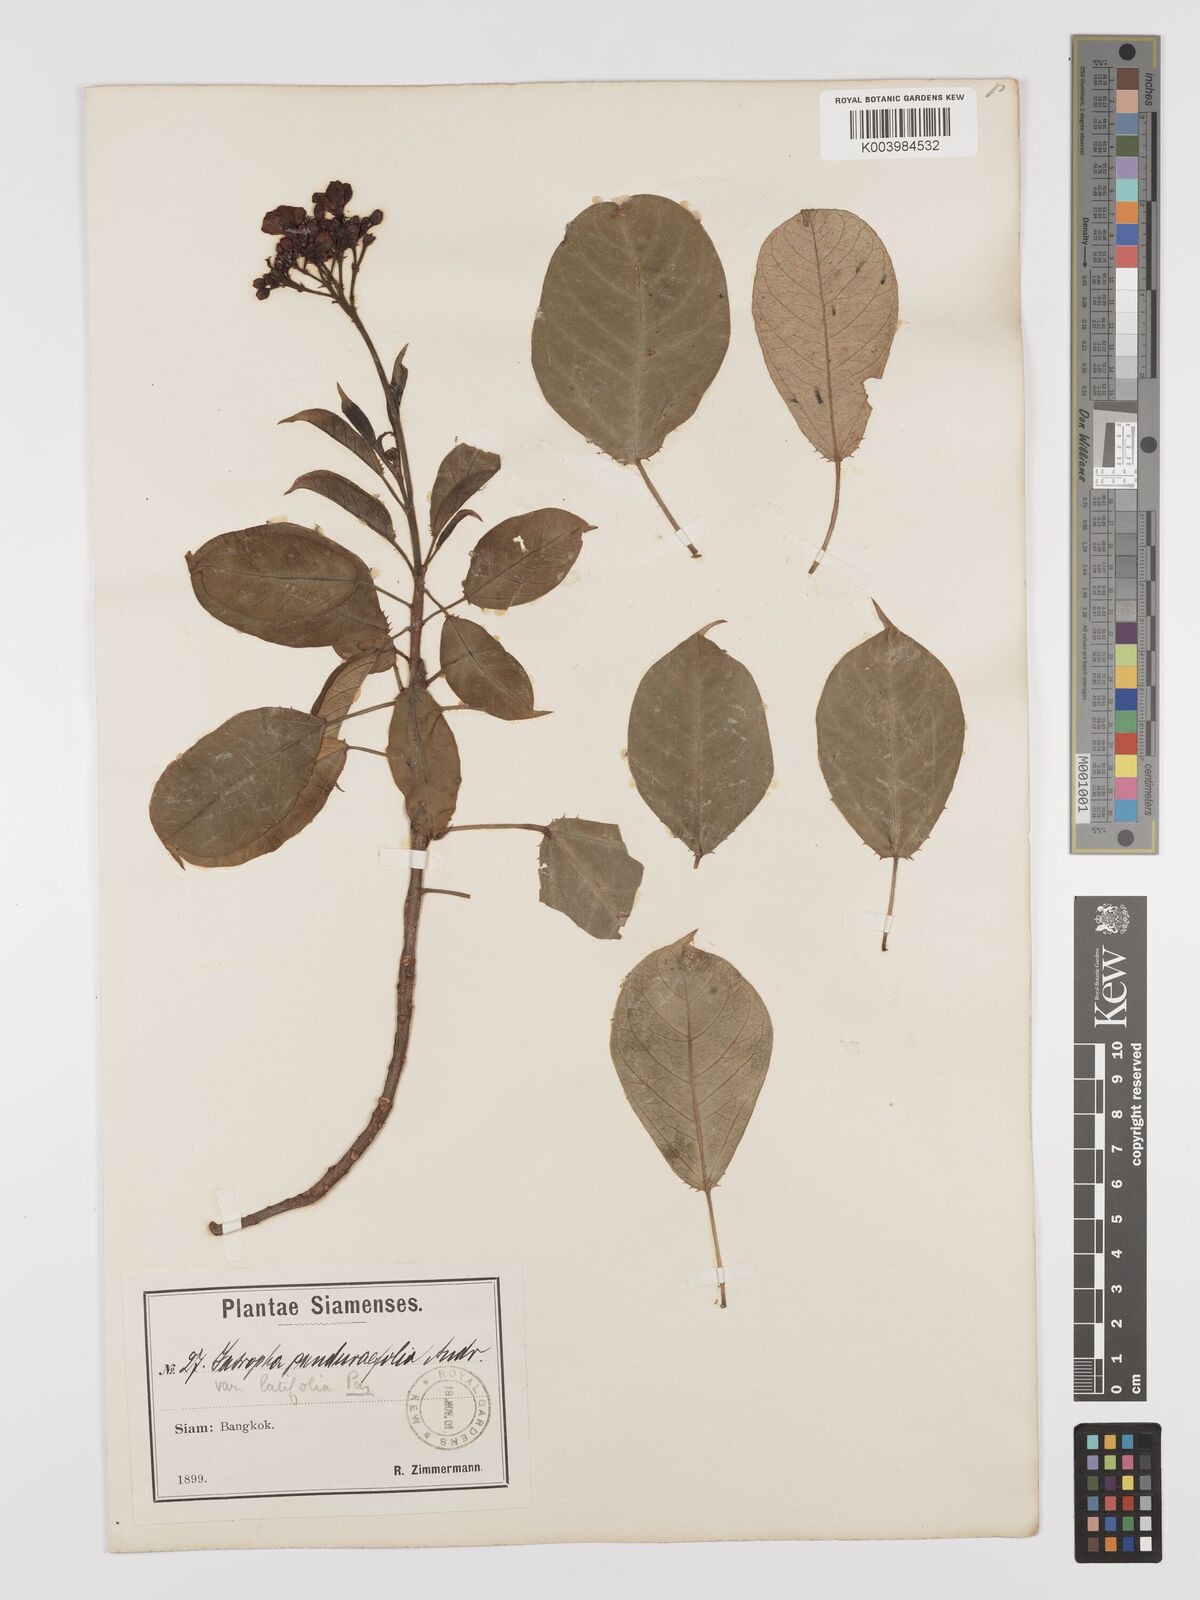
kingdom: Plantae
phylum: Tracheophyta
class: Magnoliopsida
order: Malpighiales
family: Euphorbiaceae
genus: Jatropha
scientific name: Jatropha integerrima
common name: Peregrina
